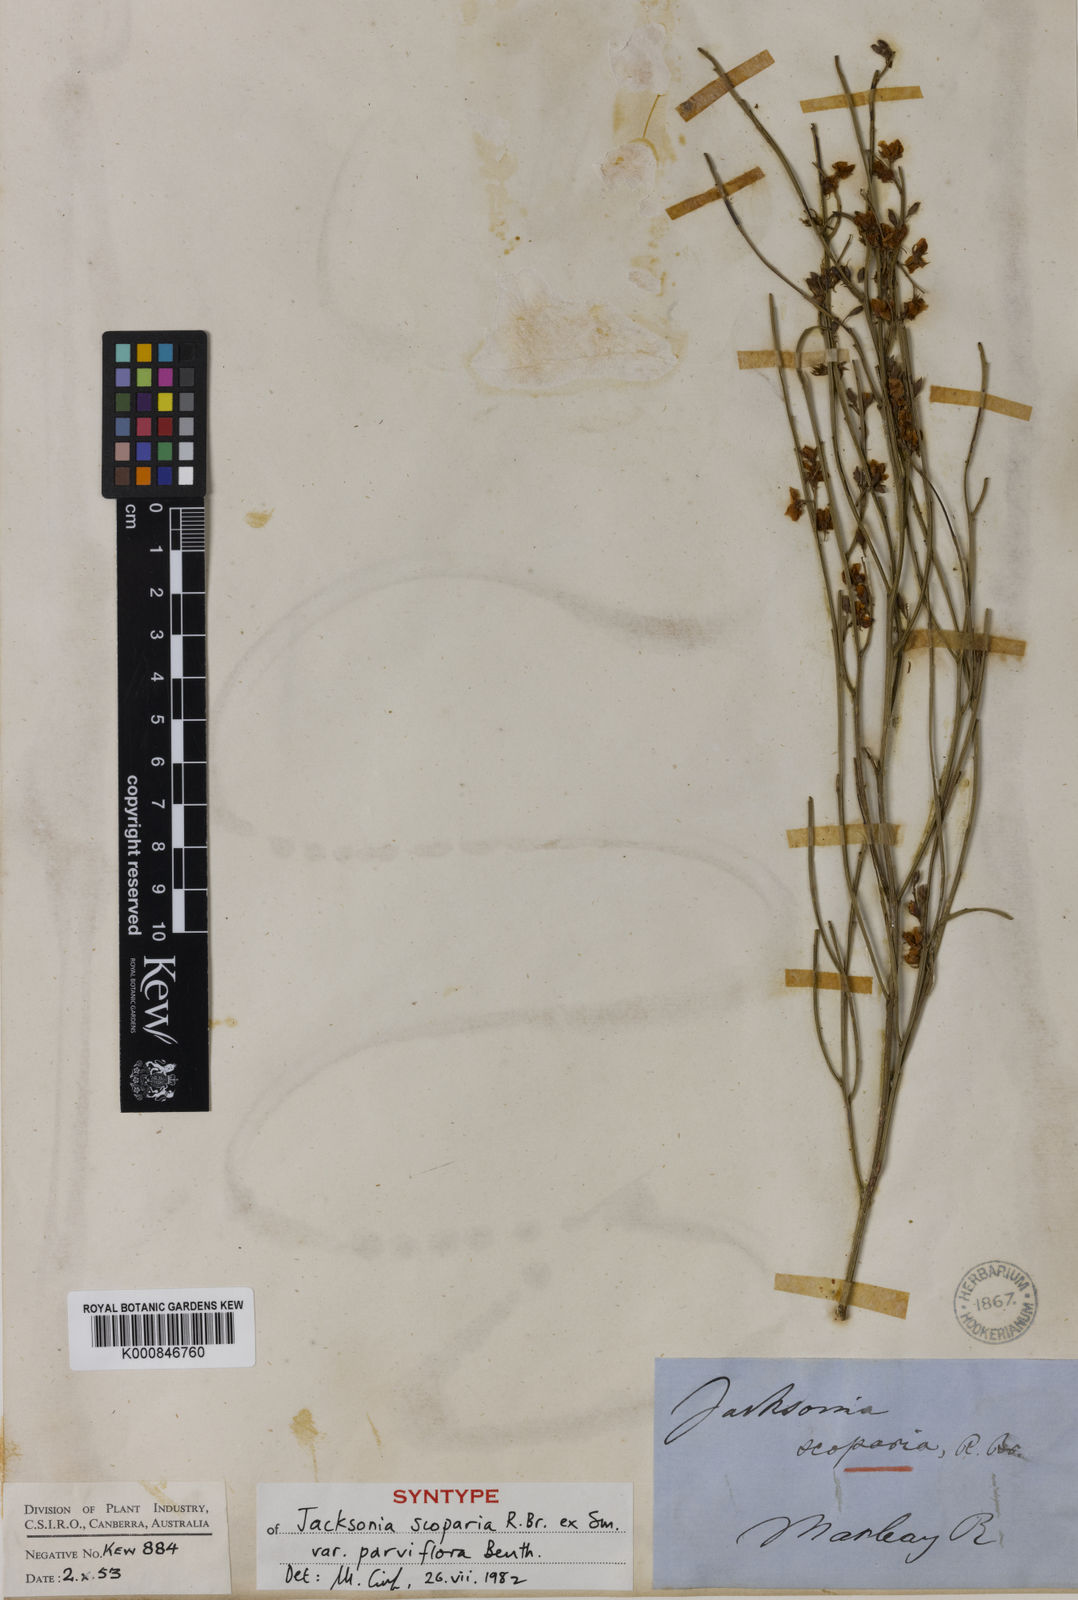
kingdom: Plantae
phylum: Tracheophyta
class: Magnoliopsida
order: Fabales
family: Fabaceae
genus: Jacksonia
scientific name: Jacksonia chappilliae
